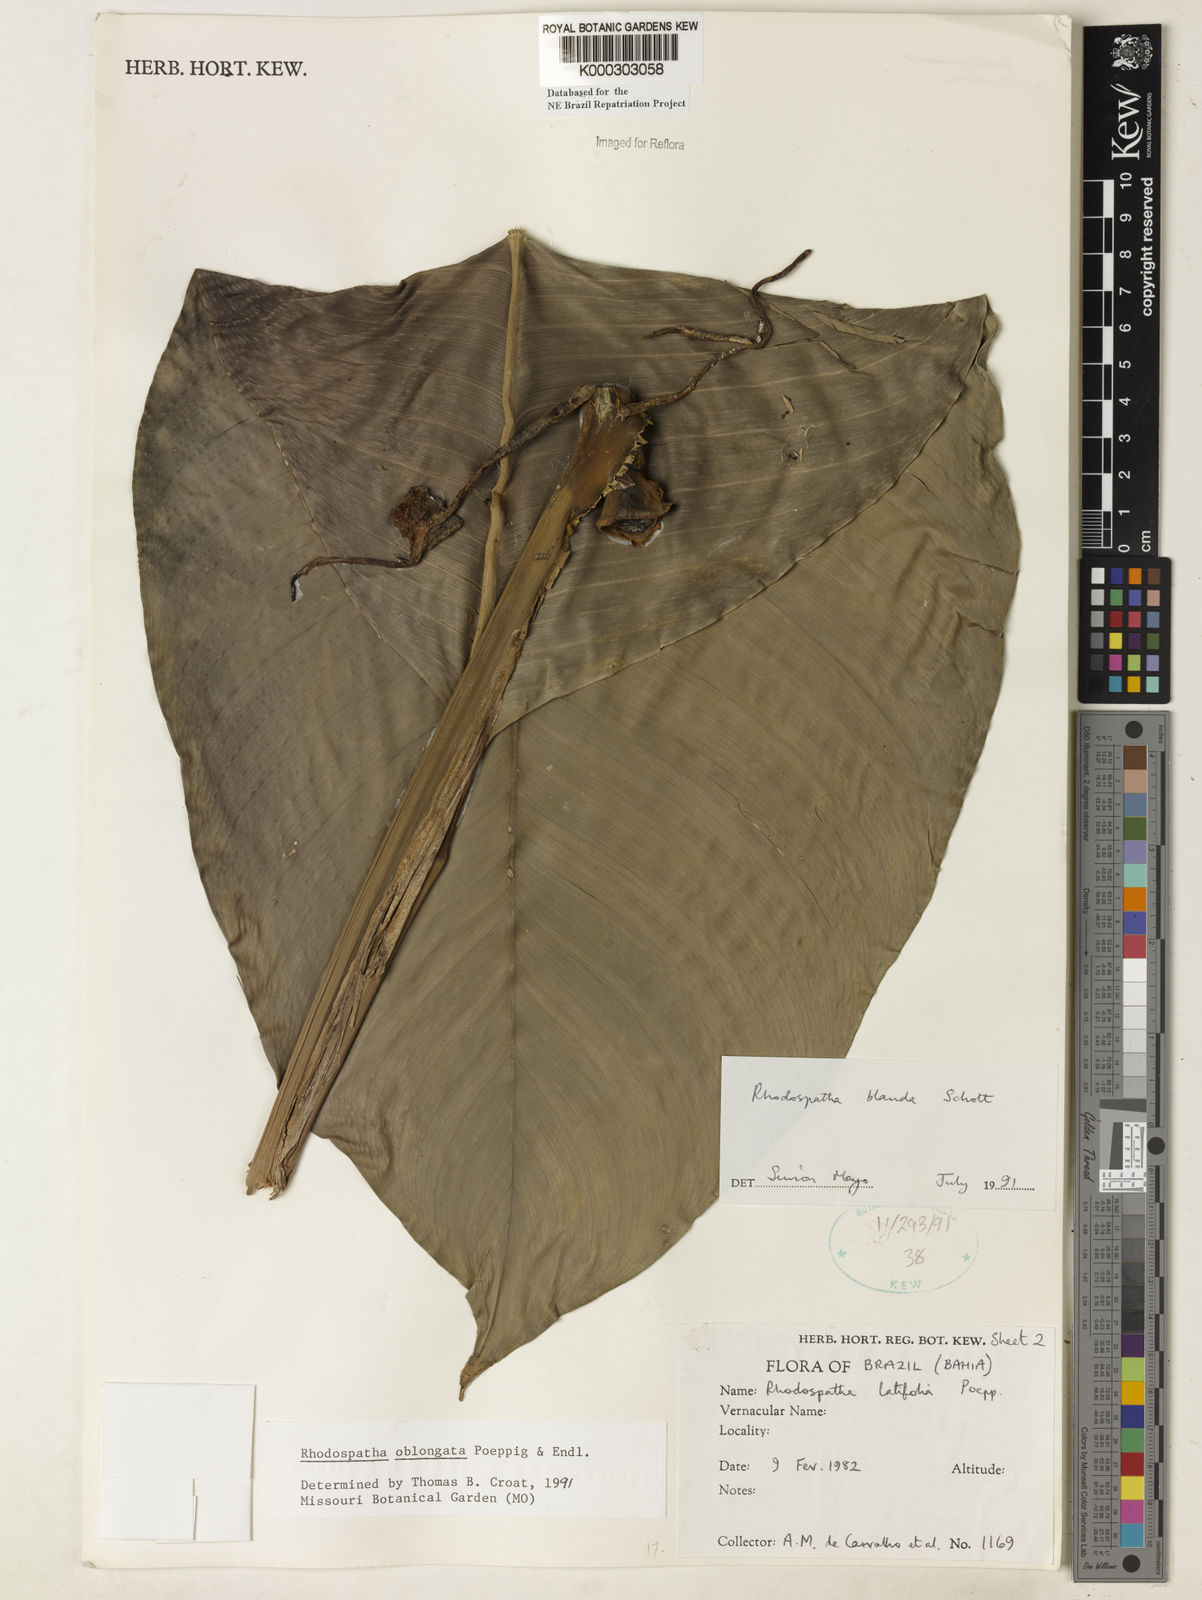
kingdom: Plantae
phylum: Tracheophyta
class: Liliopsida
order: Alismatales
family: Araceae
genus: Rhodospatha
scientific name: Rhodospatha oblongata
